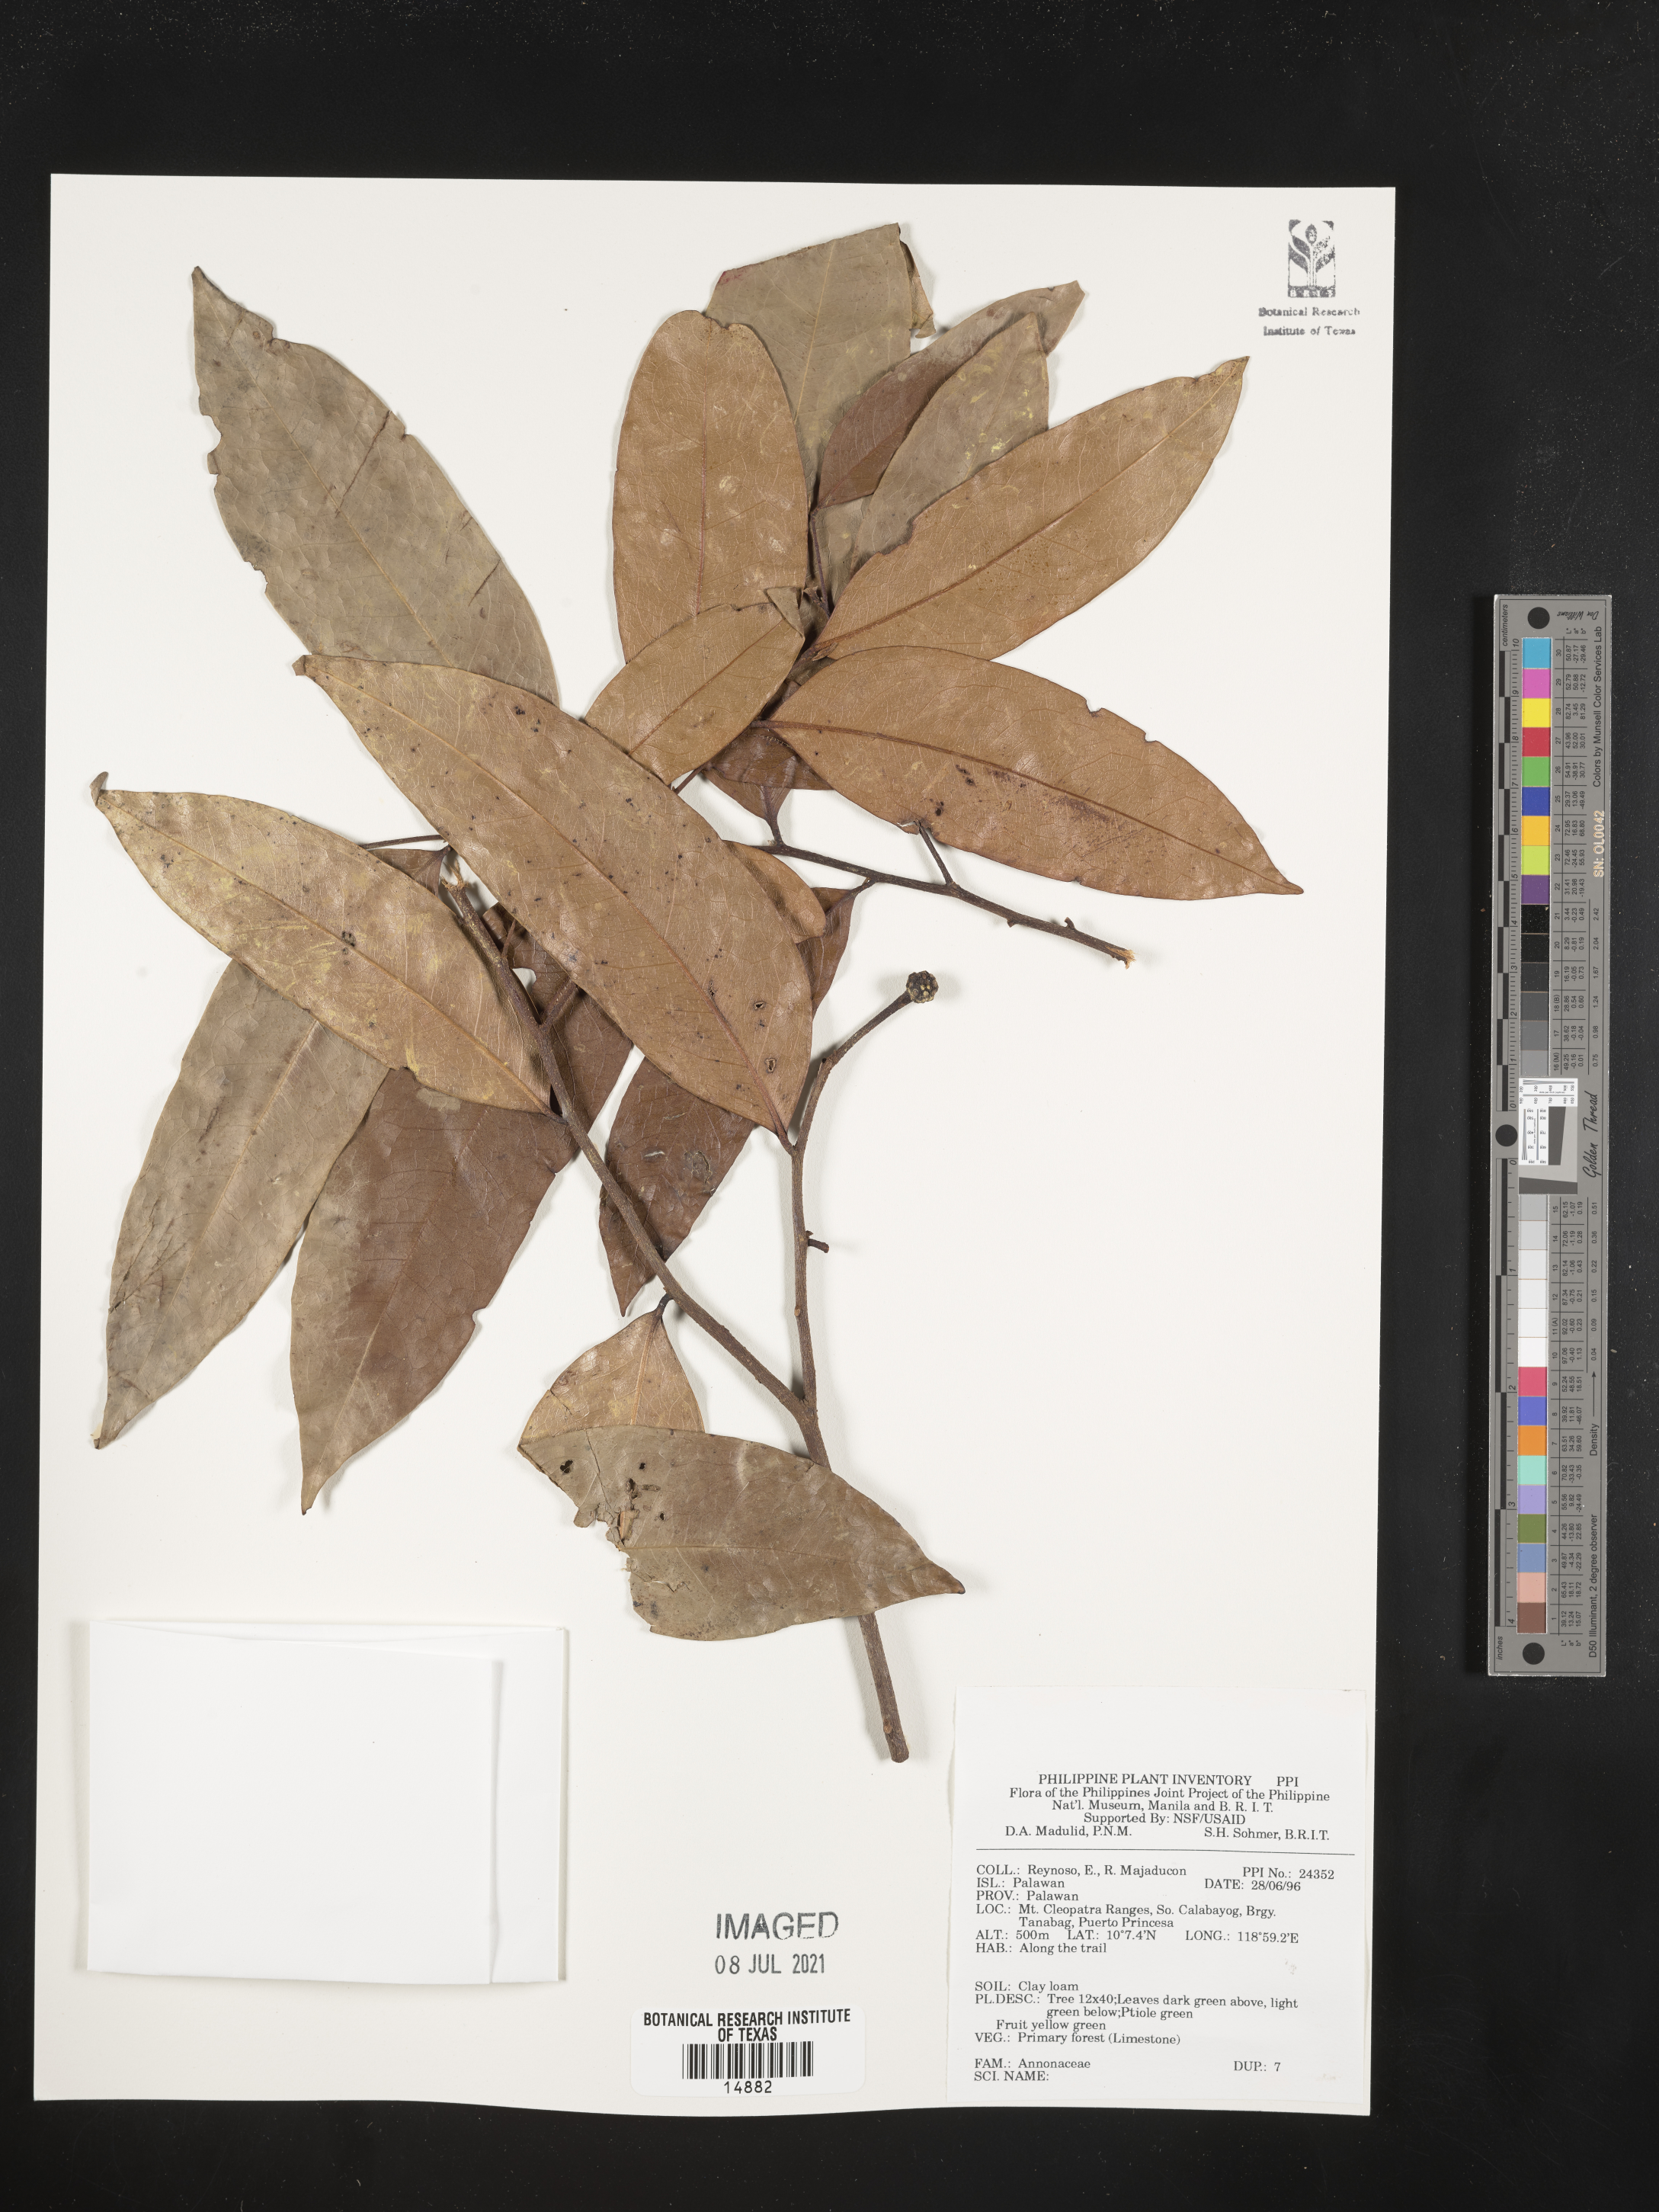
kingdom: Plantae
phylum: Tracheophyta
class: Magnoliopsida
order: Magnoliales
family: Annonaceae
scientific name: Annonaceae
